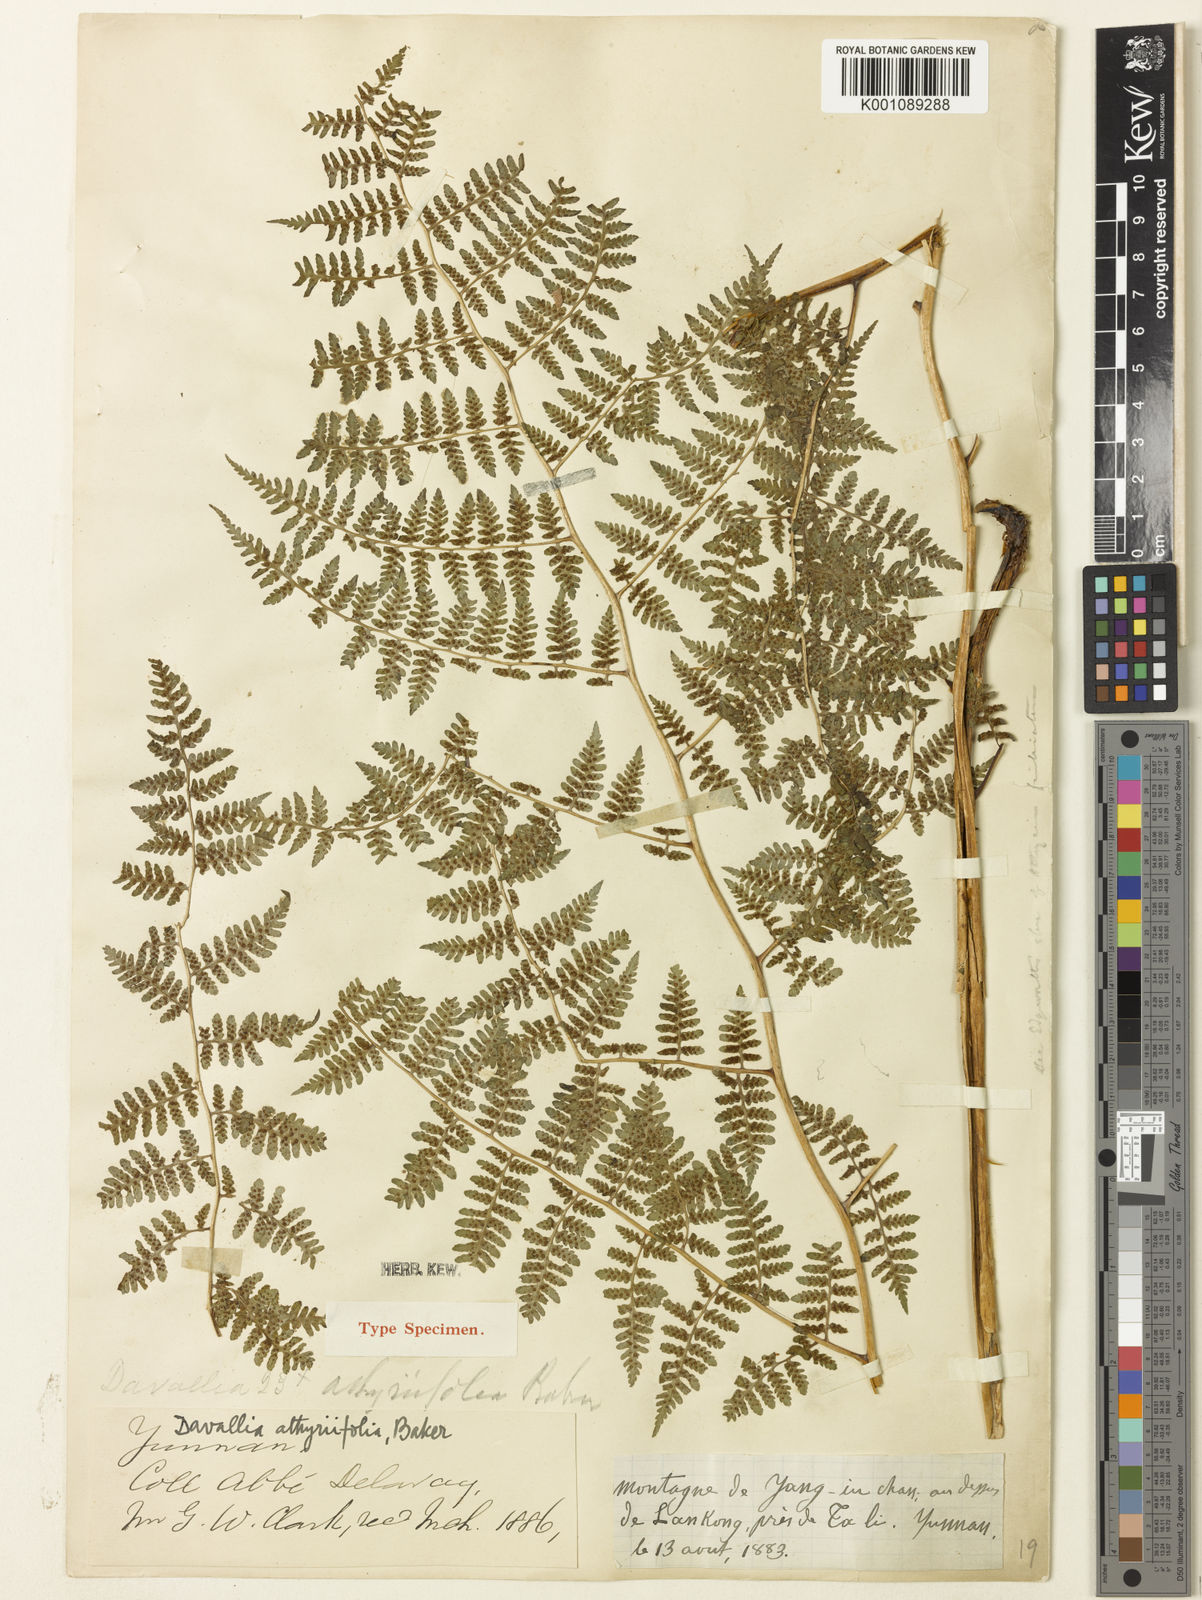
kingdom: Plantae
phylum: Tracheophyta
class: Polypodiopsida
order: Polypodiales
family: Athyriaceae
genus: Athyrium
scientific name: Athyrium atkinsonii
